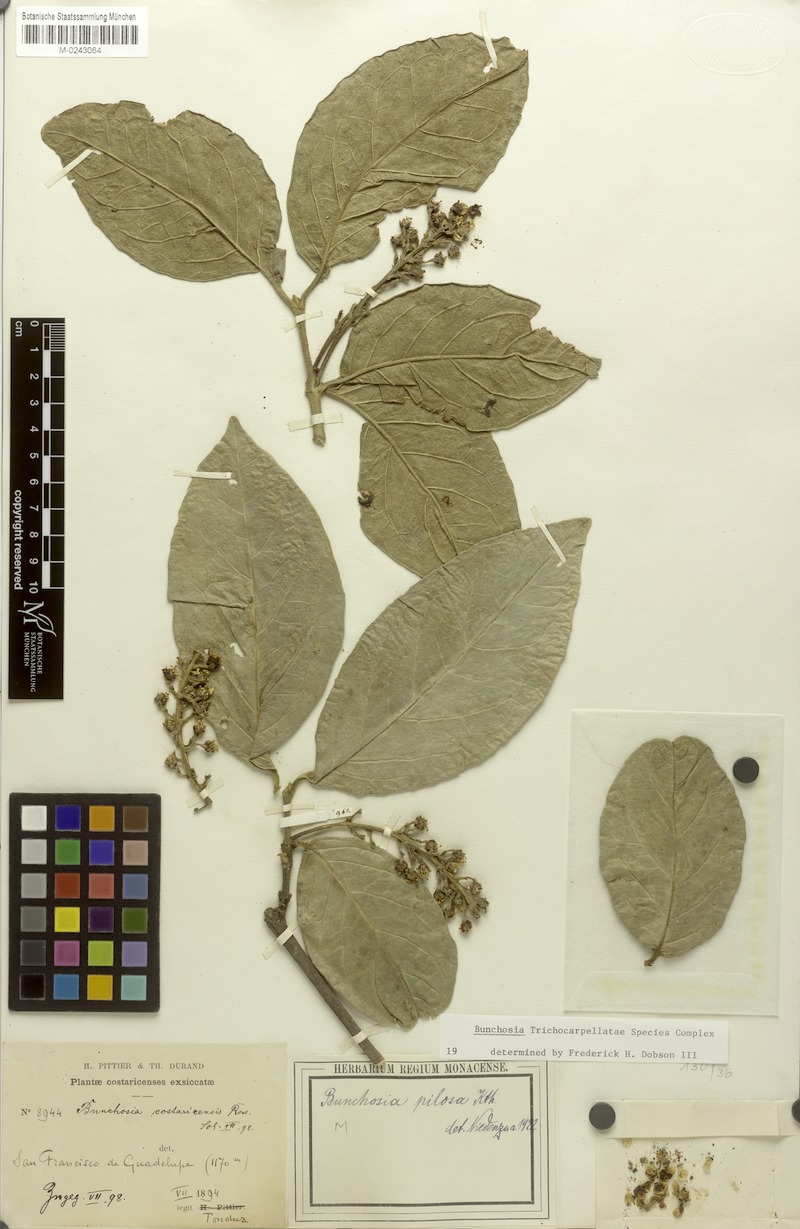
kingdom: Plantae
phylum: Tracheophyta
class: Magnoliopsida
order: Malpighiales
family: Malpighiaceae
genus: Bunchosia
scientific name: Bunchosia odorata
